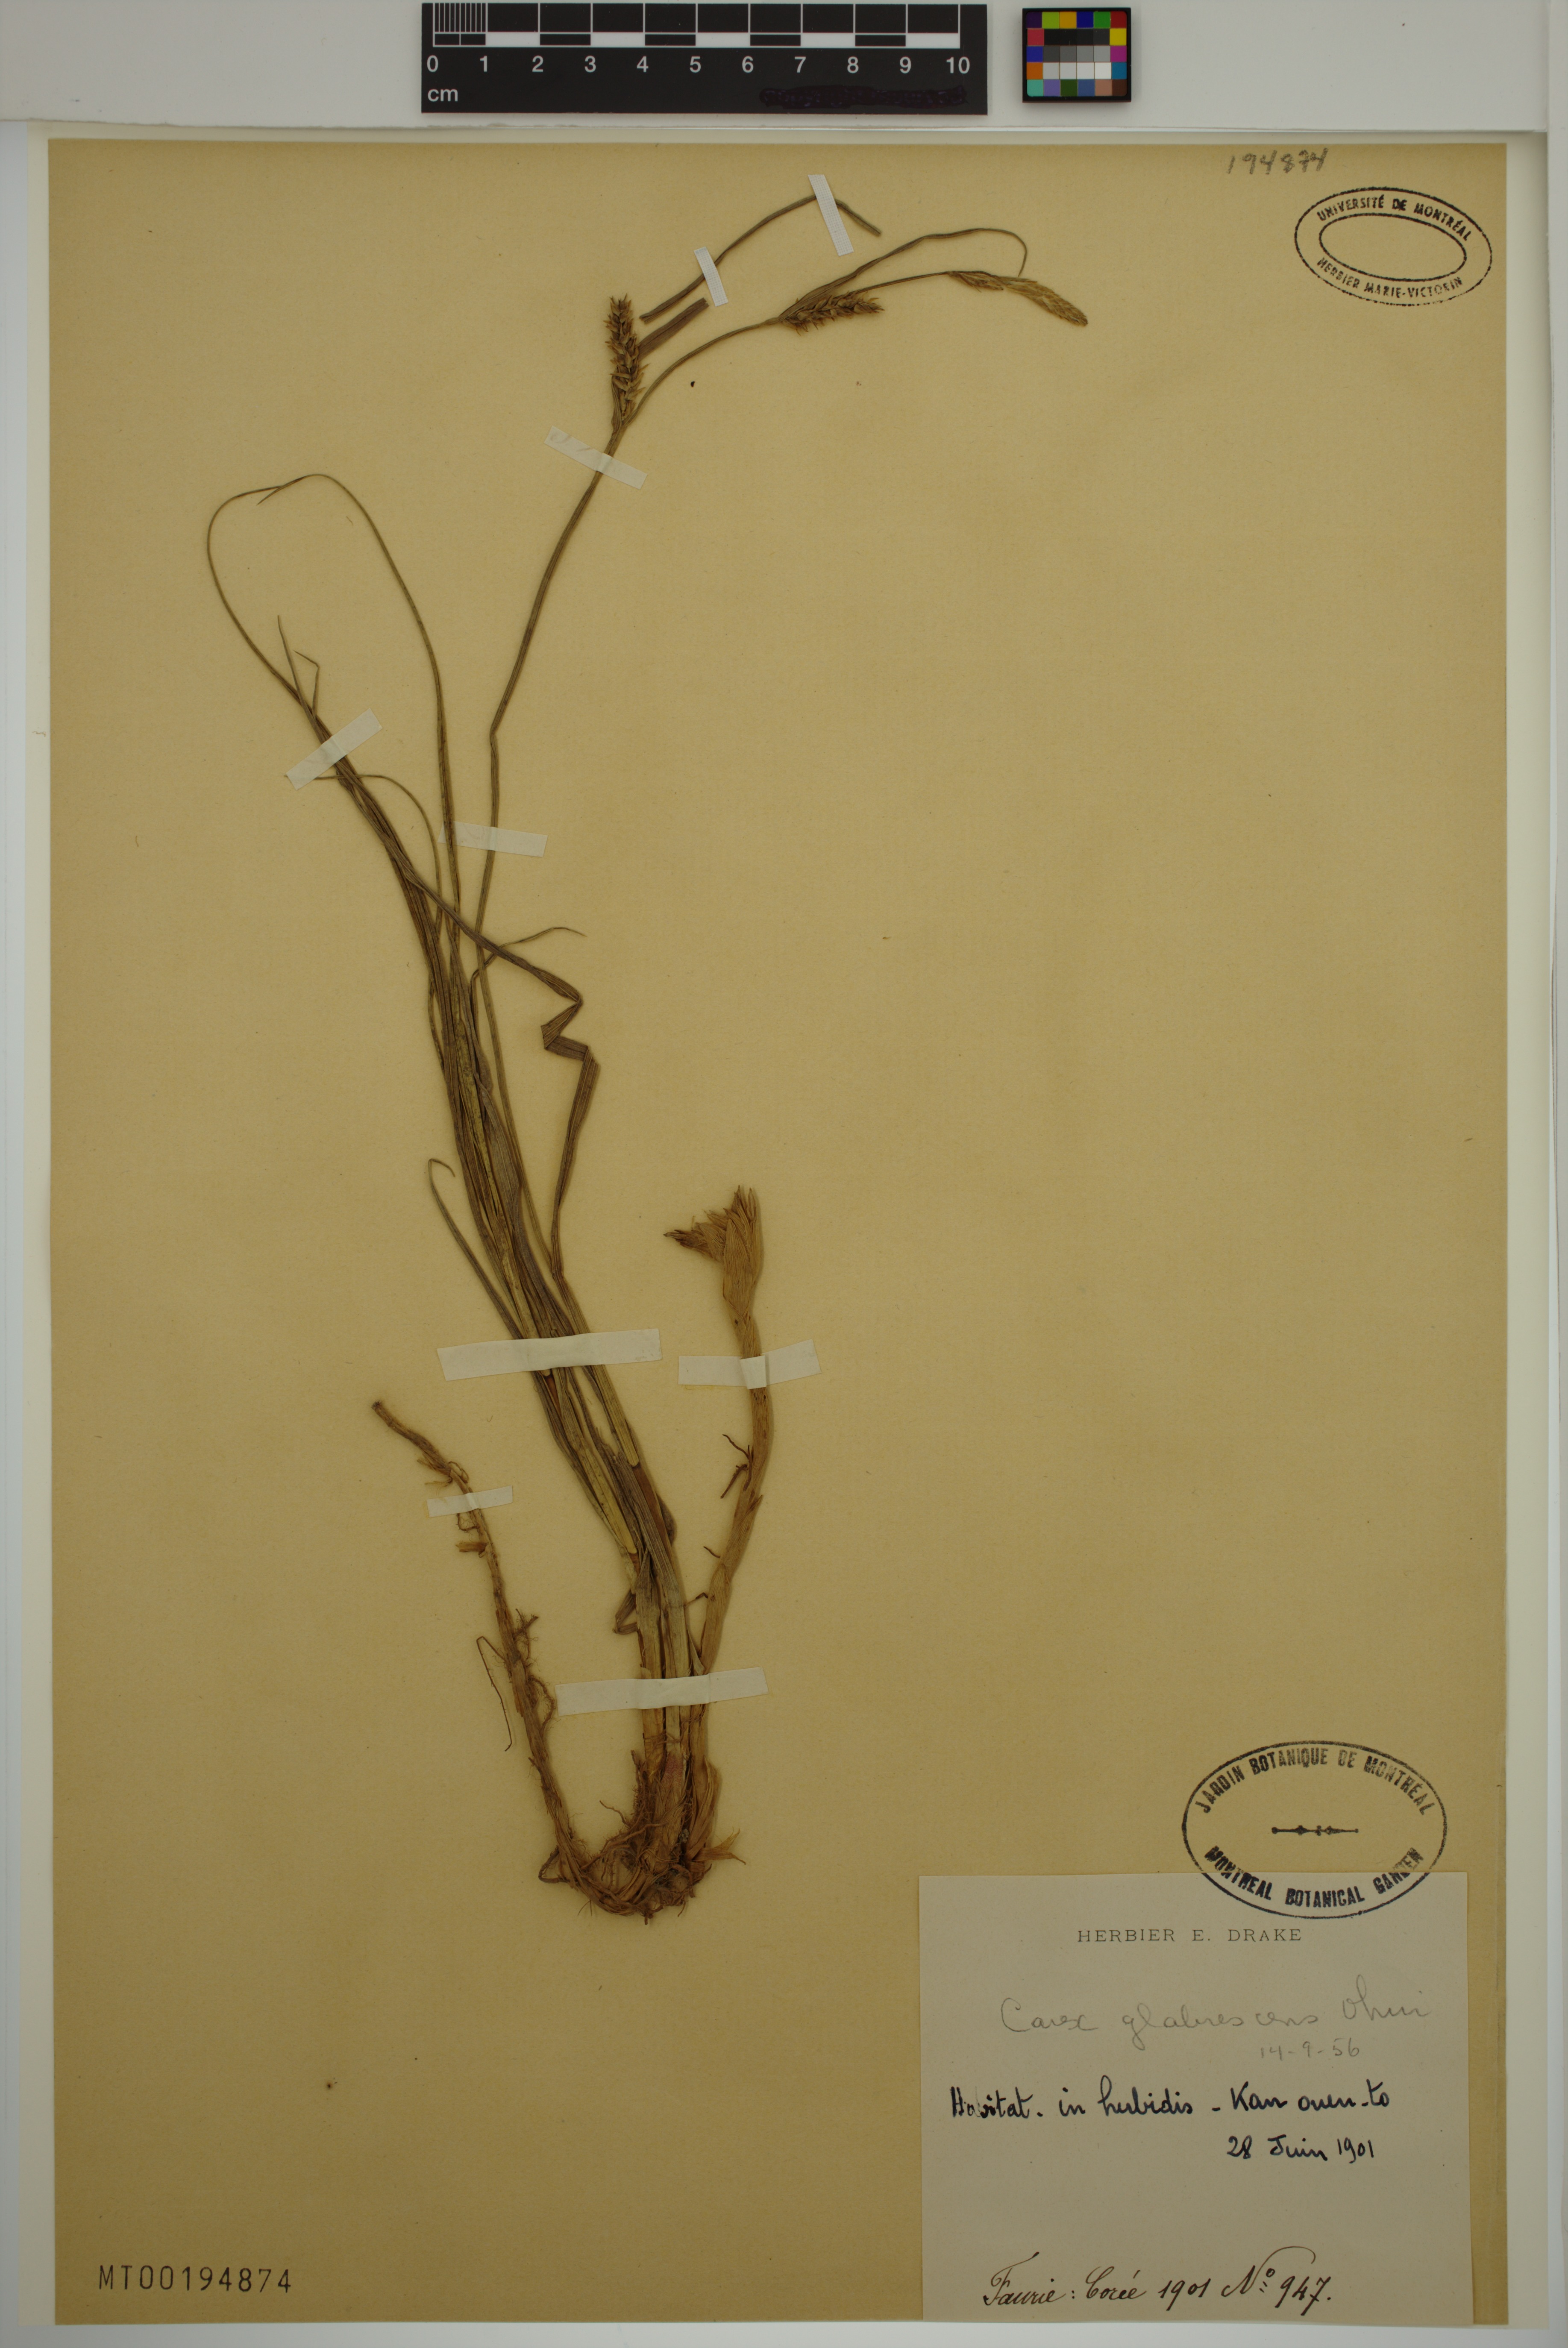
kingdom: Plantae
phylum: Tracheophyta
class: Liliopsida
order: Poales
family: Cyperaceae
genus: Carex
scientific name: Carex glabrescens
